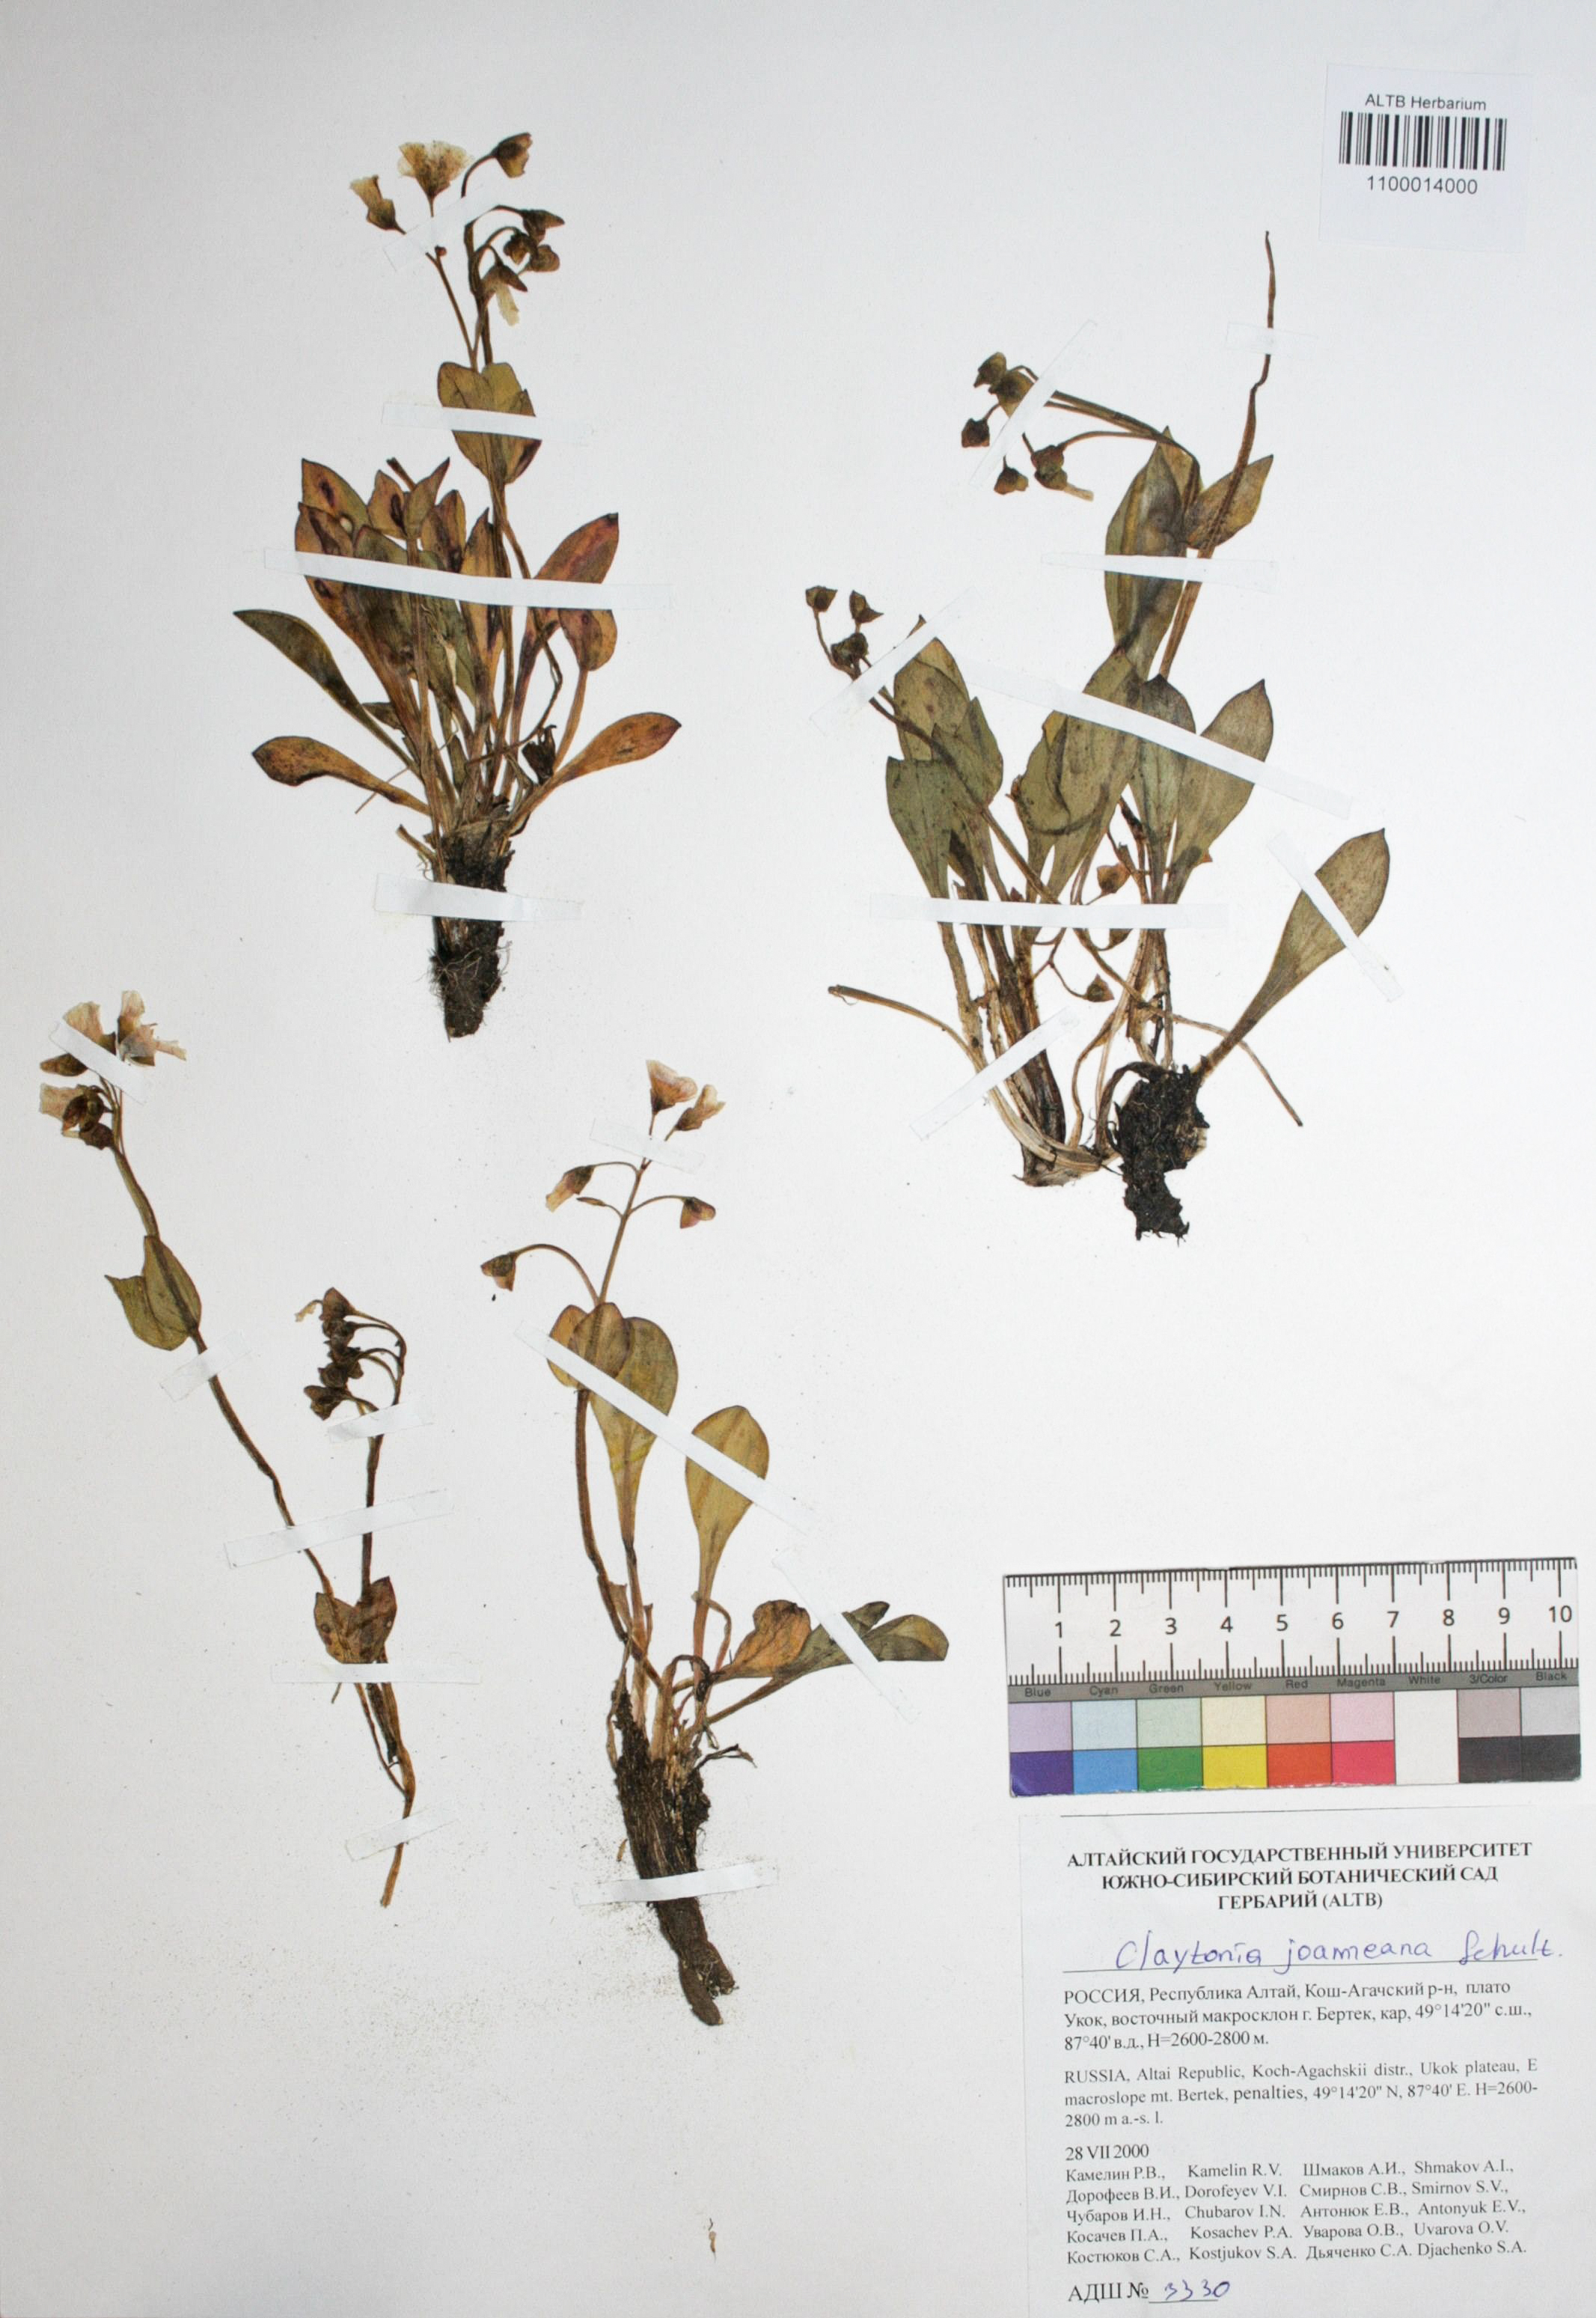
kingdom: Plantae
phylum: Tracheophyta
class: Magnoliopsida
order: Caryophyllales
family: Montiaceae
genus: Claytonia
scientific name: Claytonia joanneana
